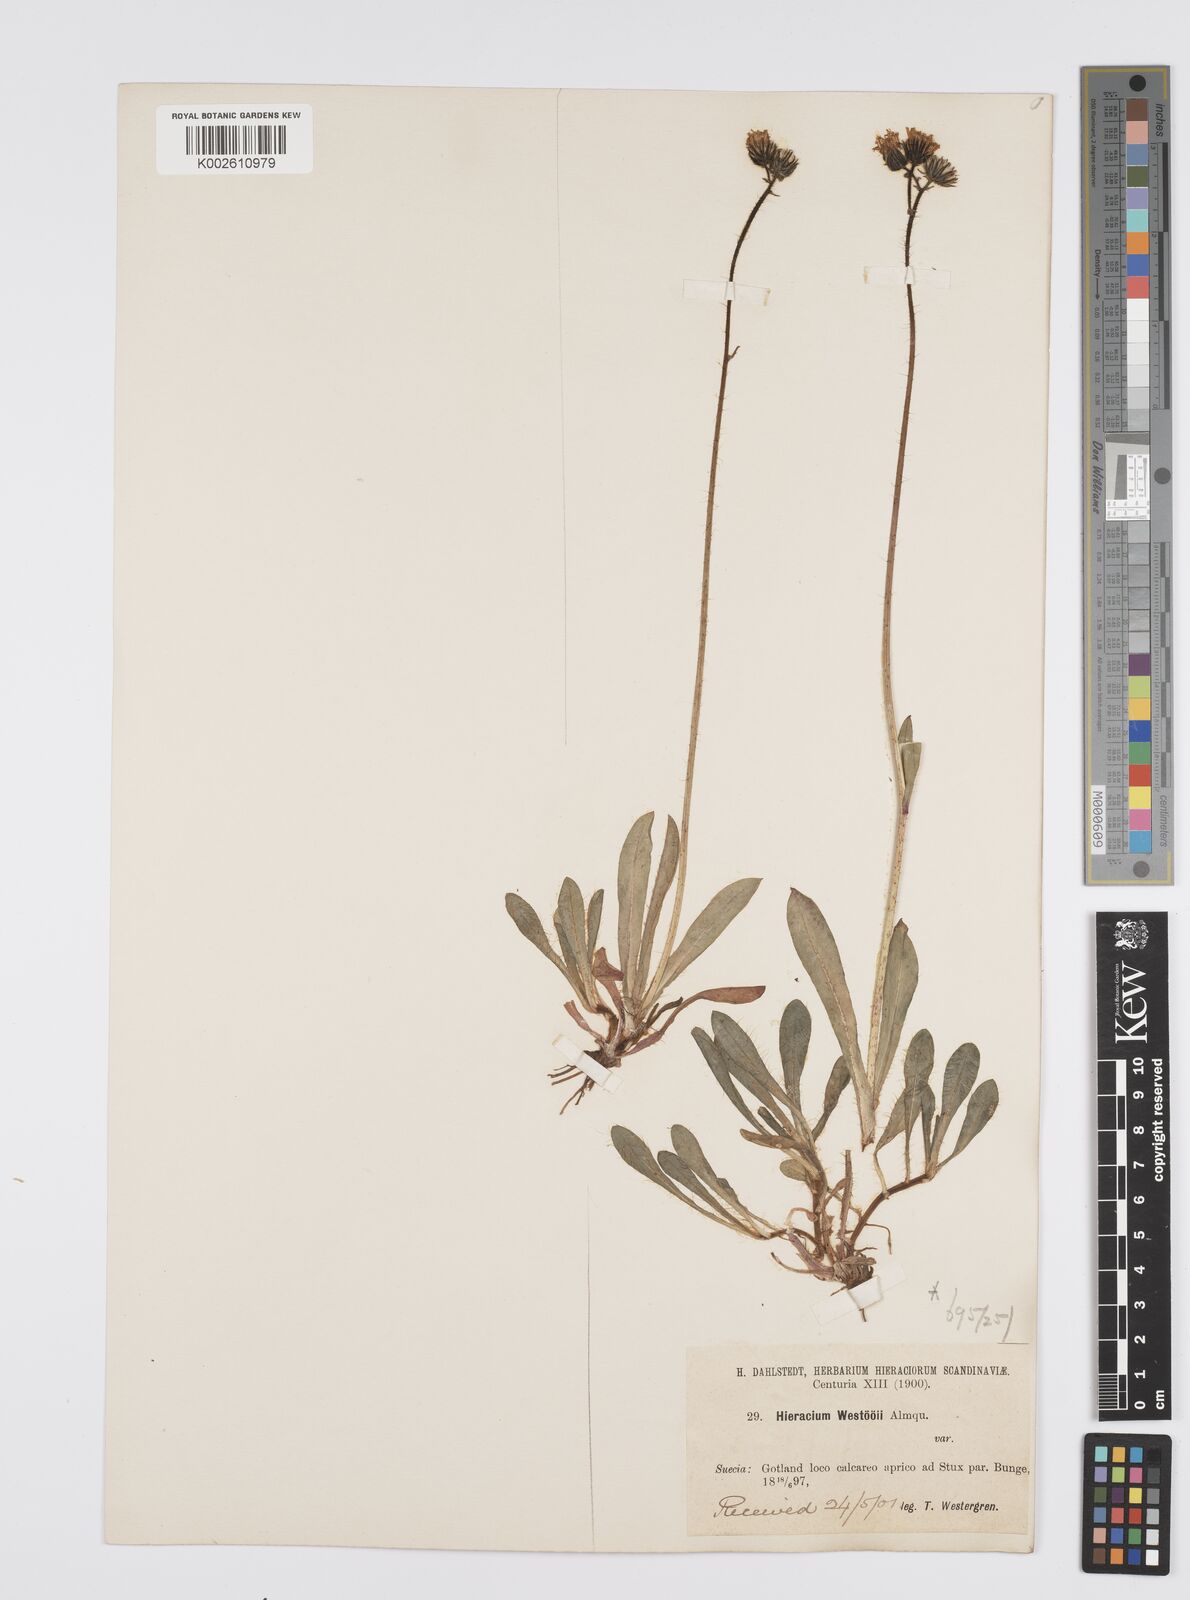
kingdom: Plantae
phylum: Tracheophyta
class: Magnoliopsida
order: Asterales
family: Asteraceae
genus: Pilosella
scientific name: Pilosella piloselloides
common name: Glaucous king-devil
